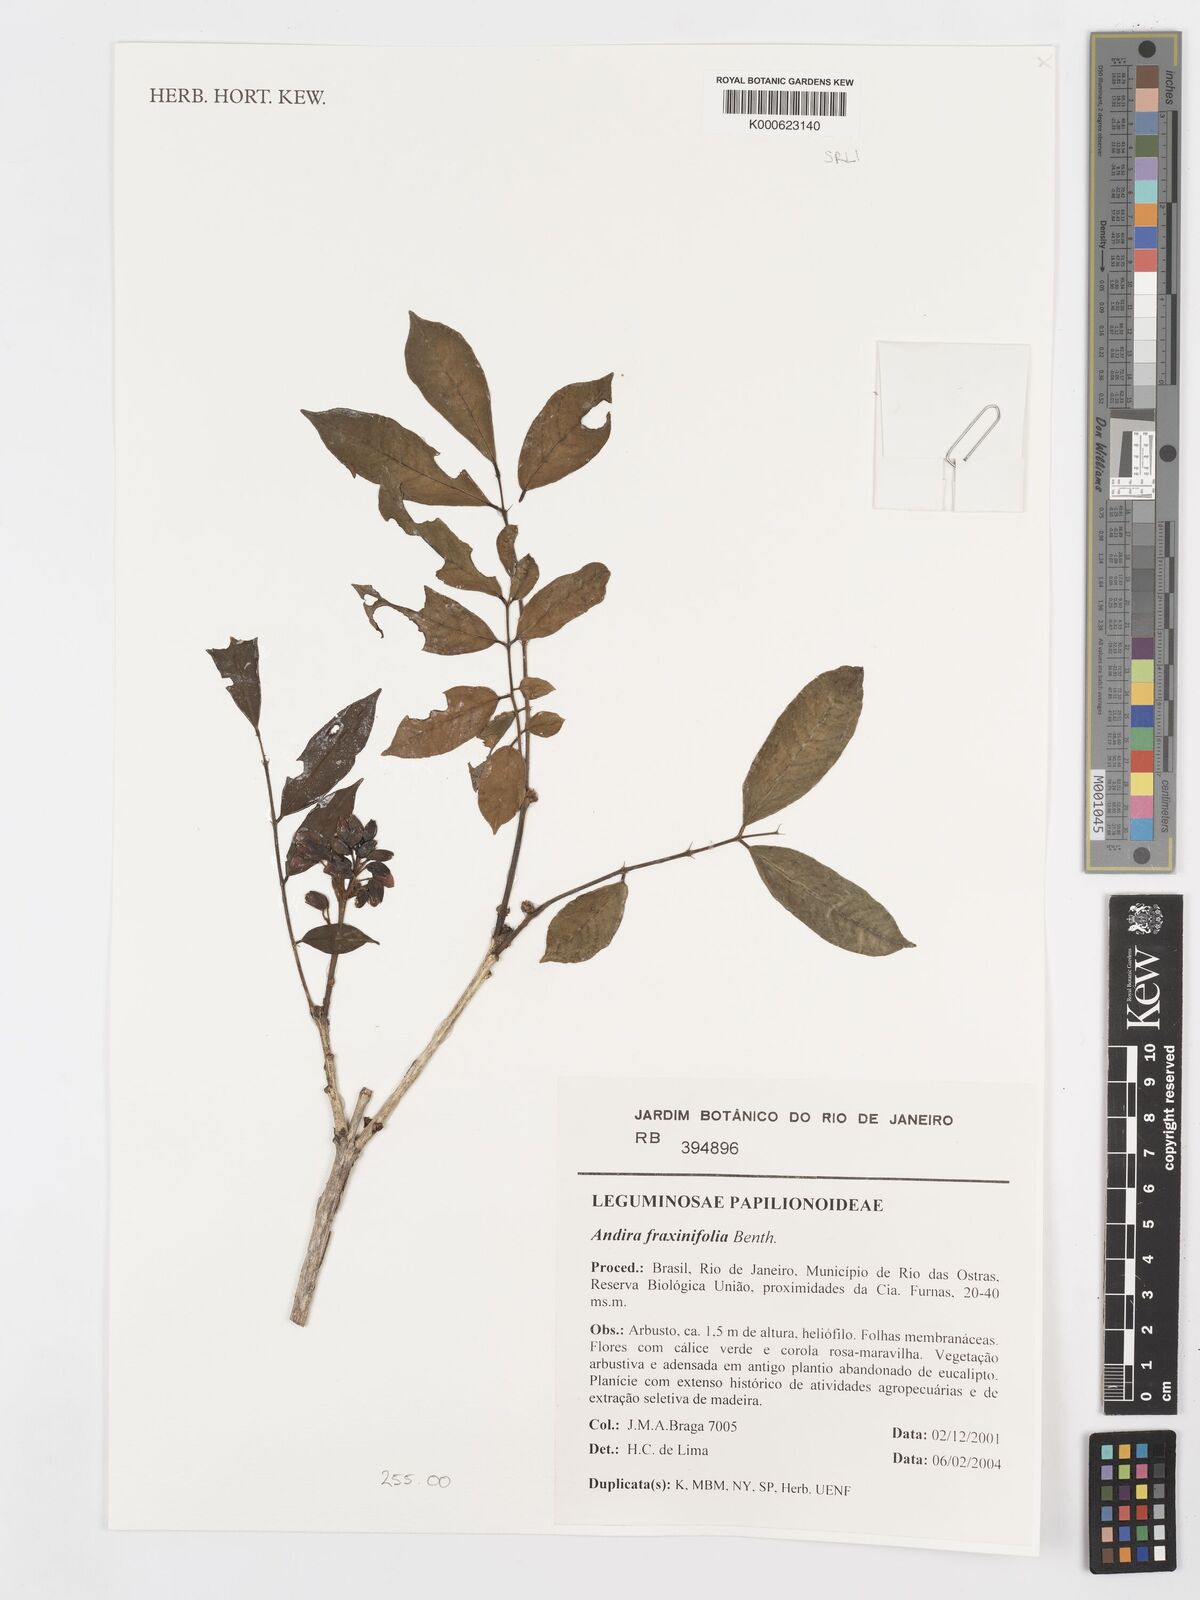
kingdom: Plantae
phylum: Tracheophyta
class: Magnoliopsida
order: Fabales
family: Fabaceae
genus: Andira
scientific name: Andira fraxinifolia
